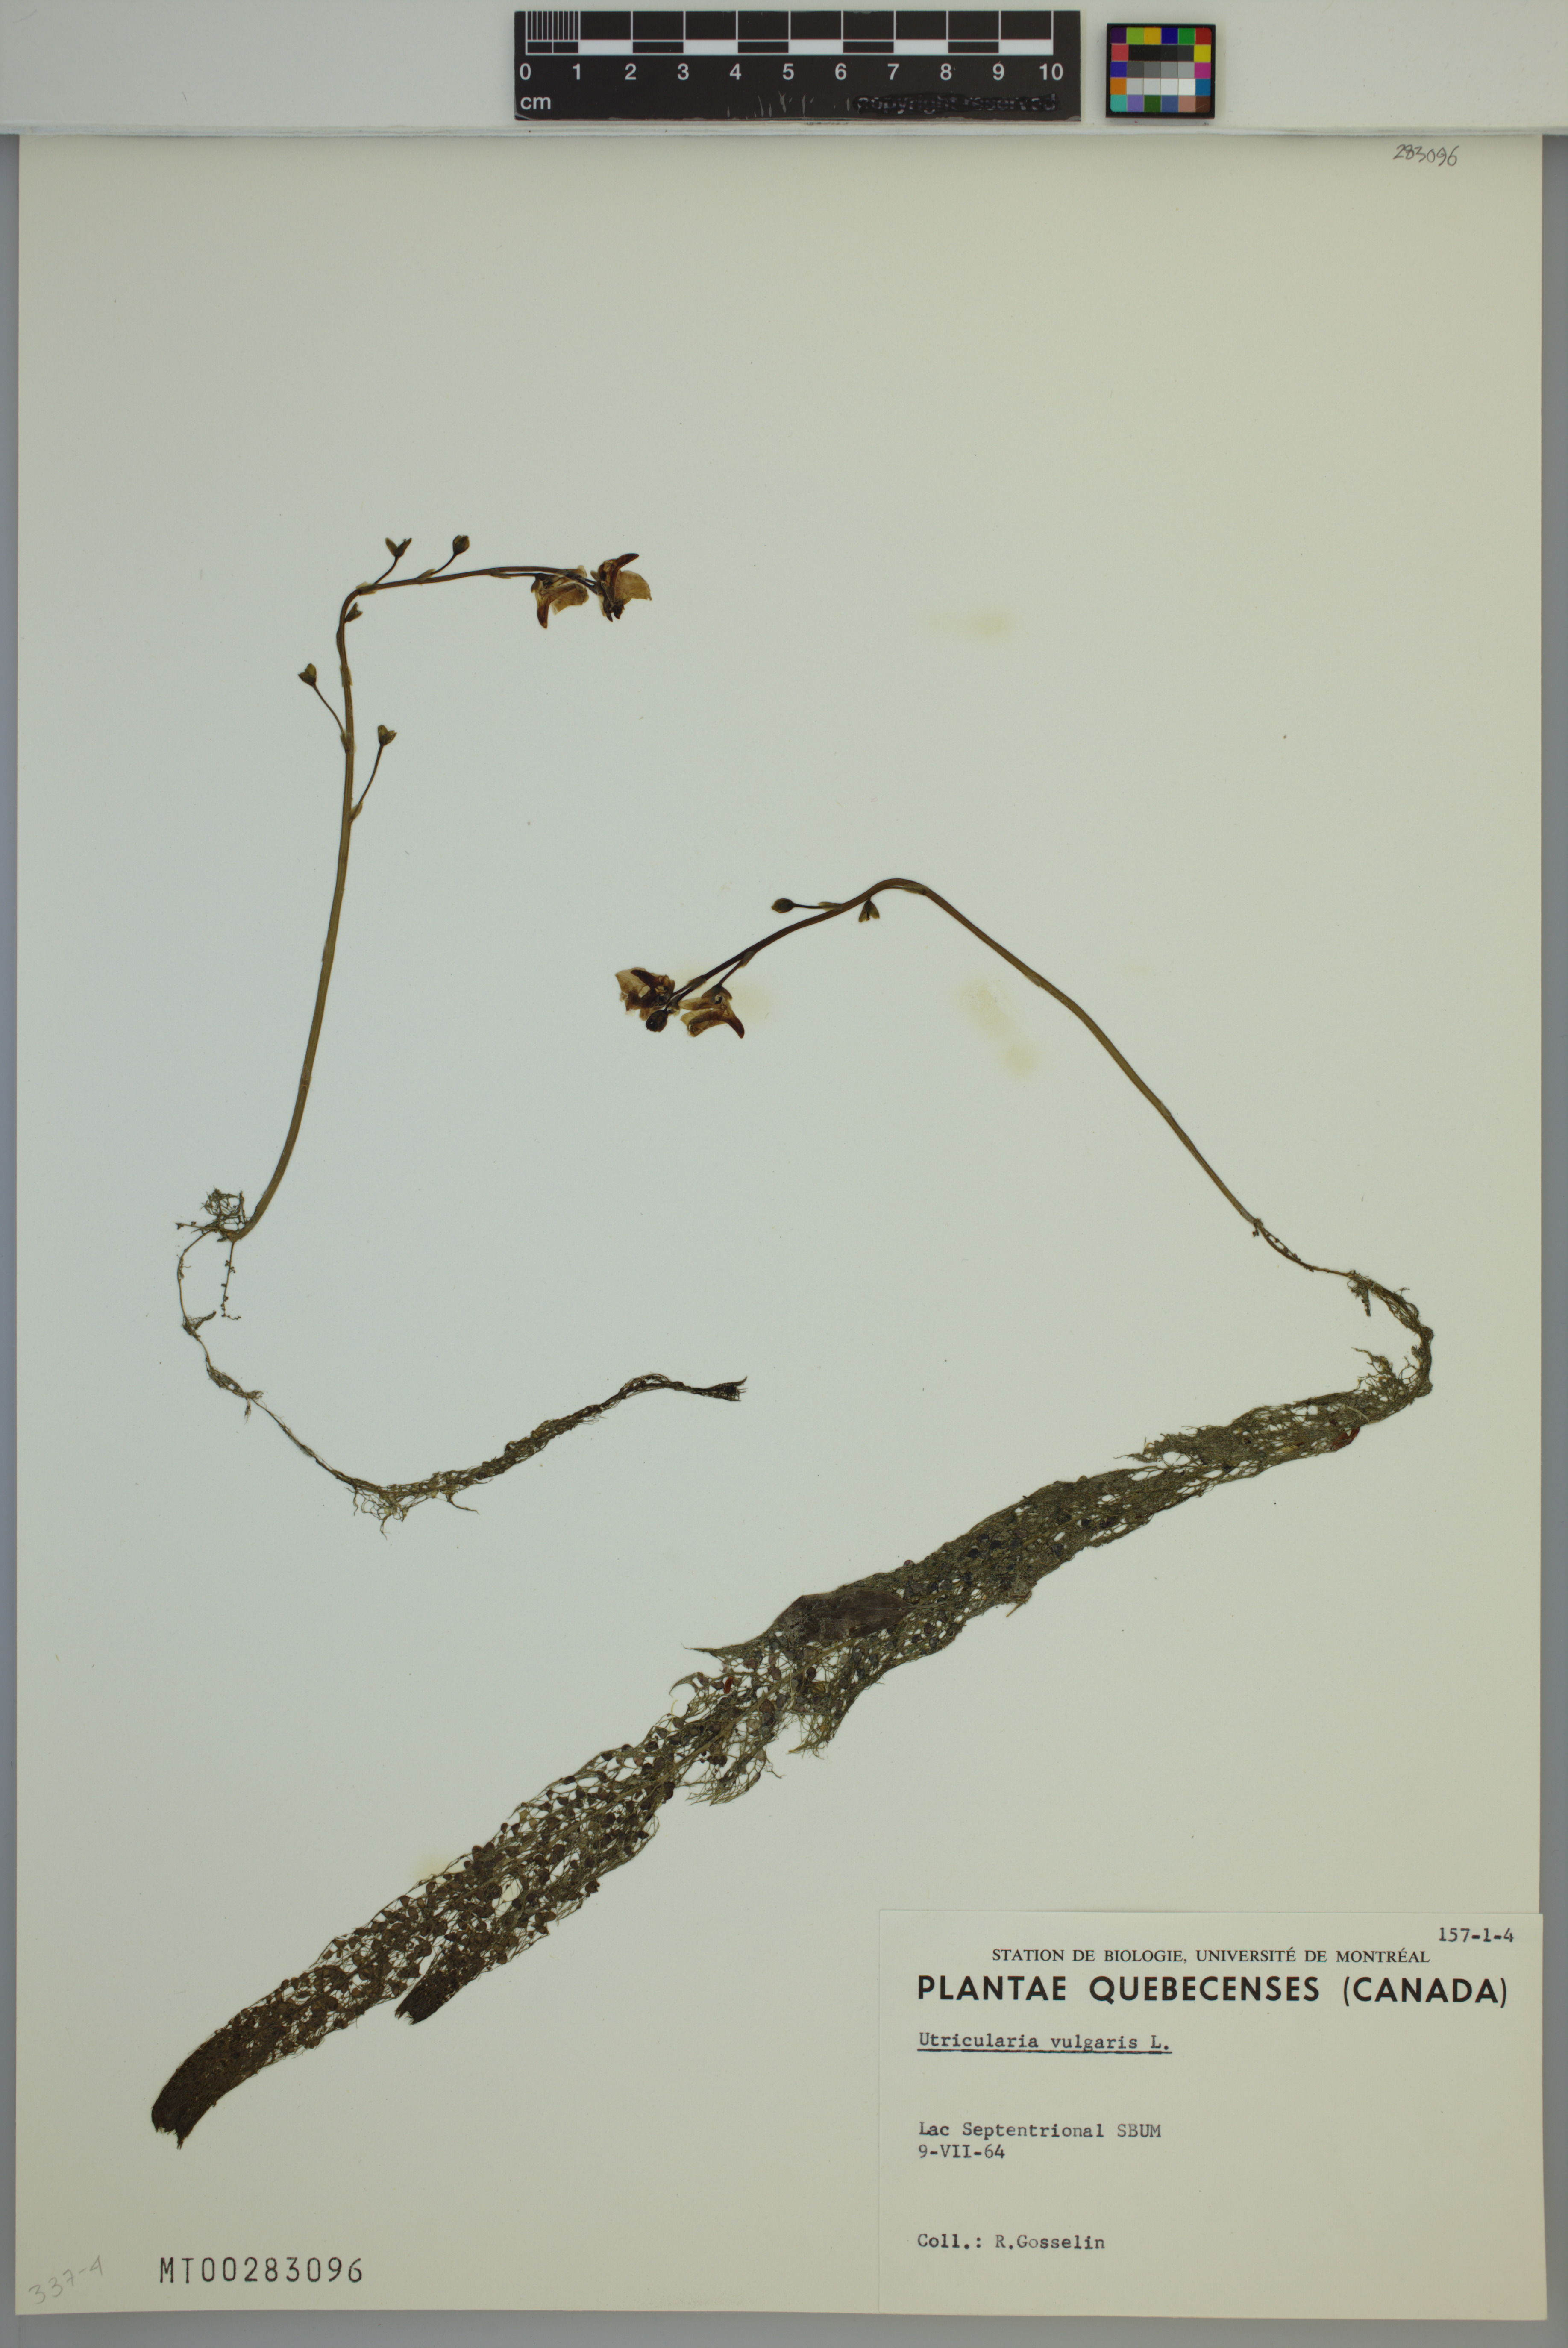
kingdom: Plantae
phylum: Tracheophyta
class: Magnoliopsida
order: Lamiales
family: Lentibulariaceae
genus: Utricularia
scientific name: Utricularia macrorhiza
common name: Common bladderwort
